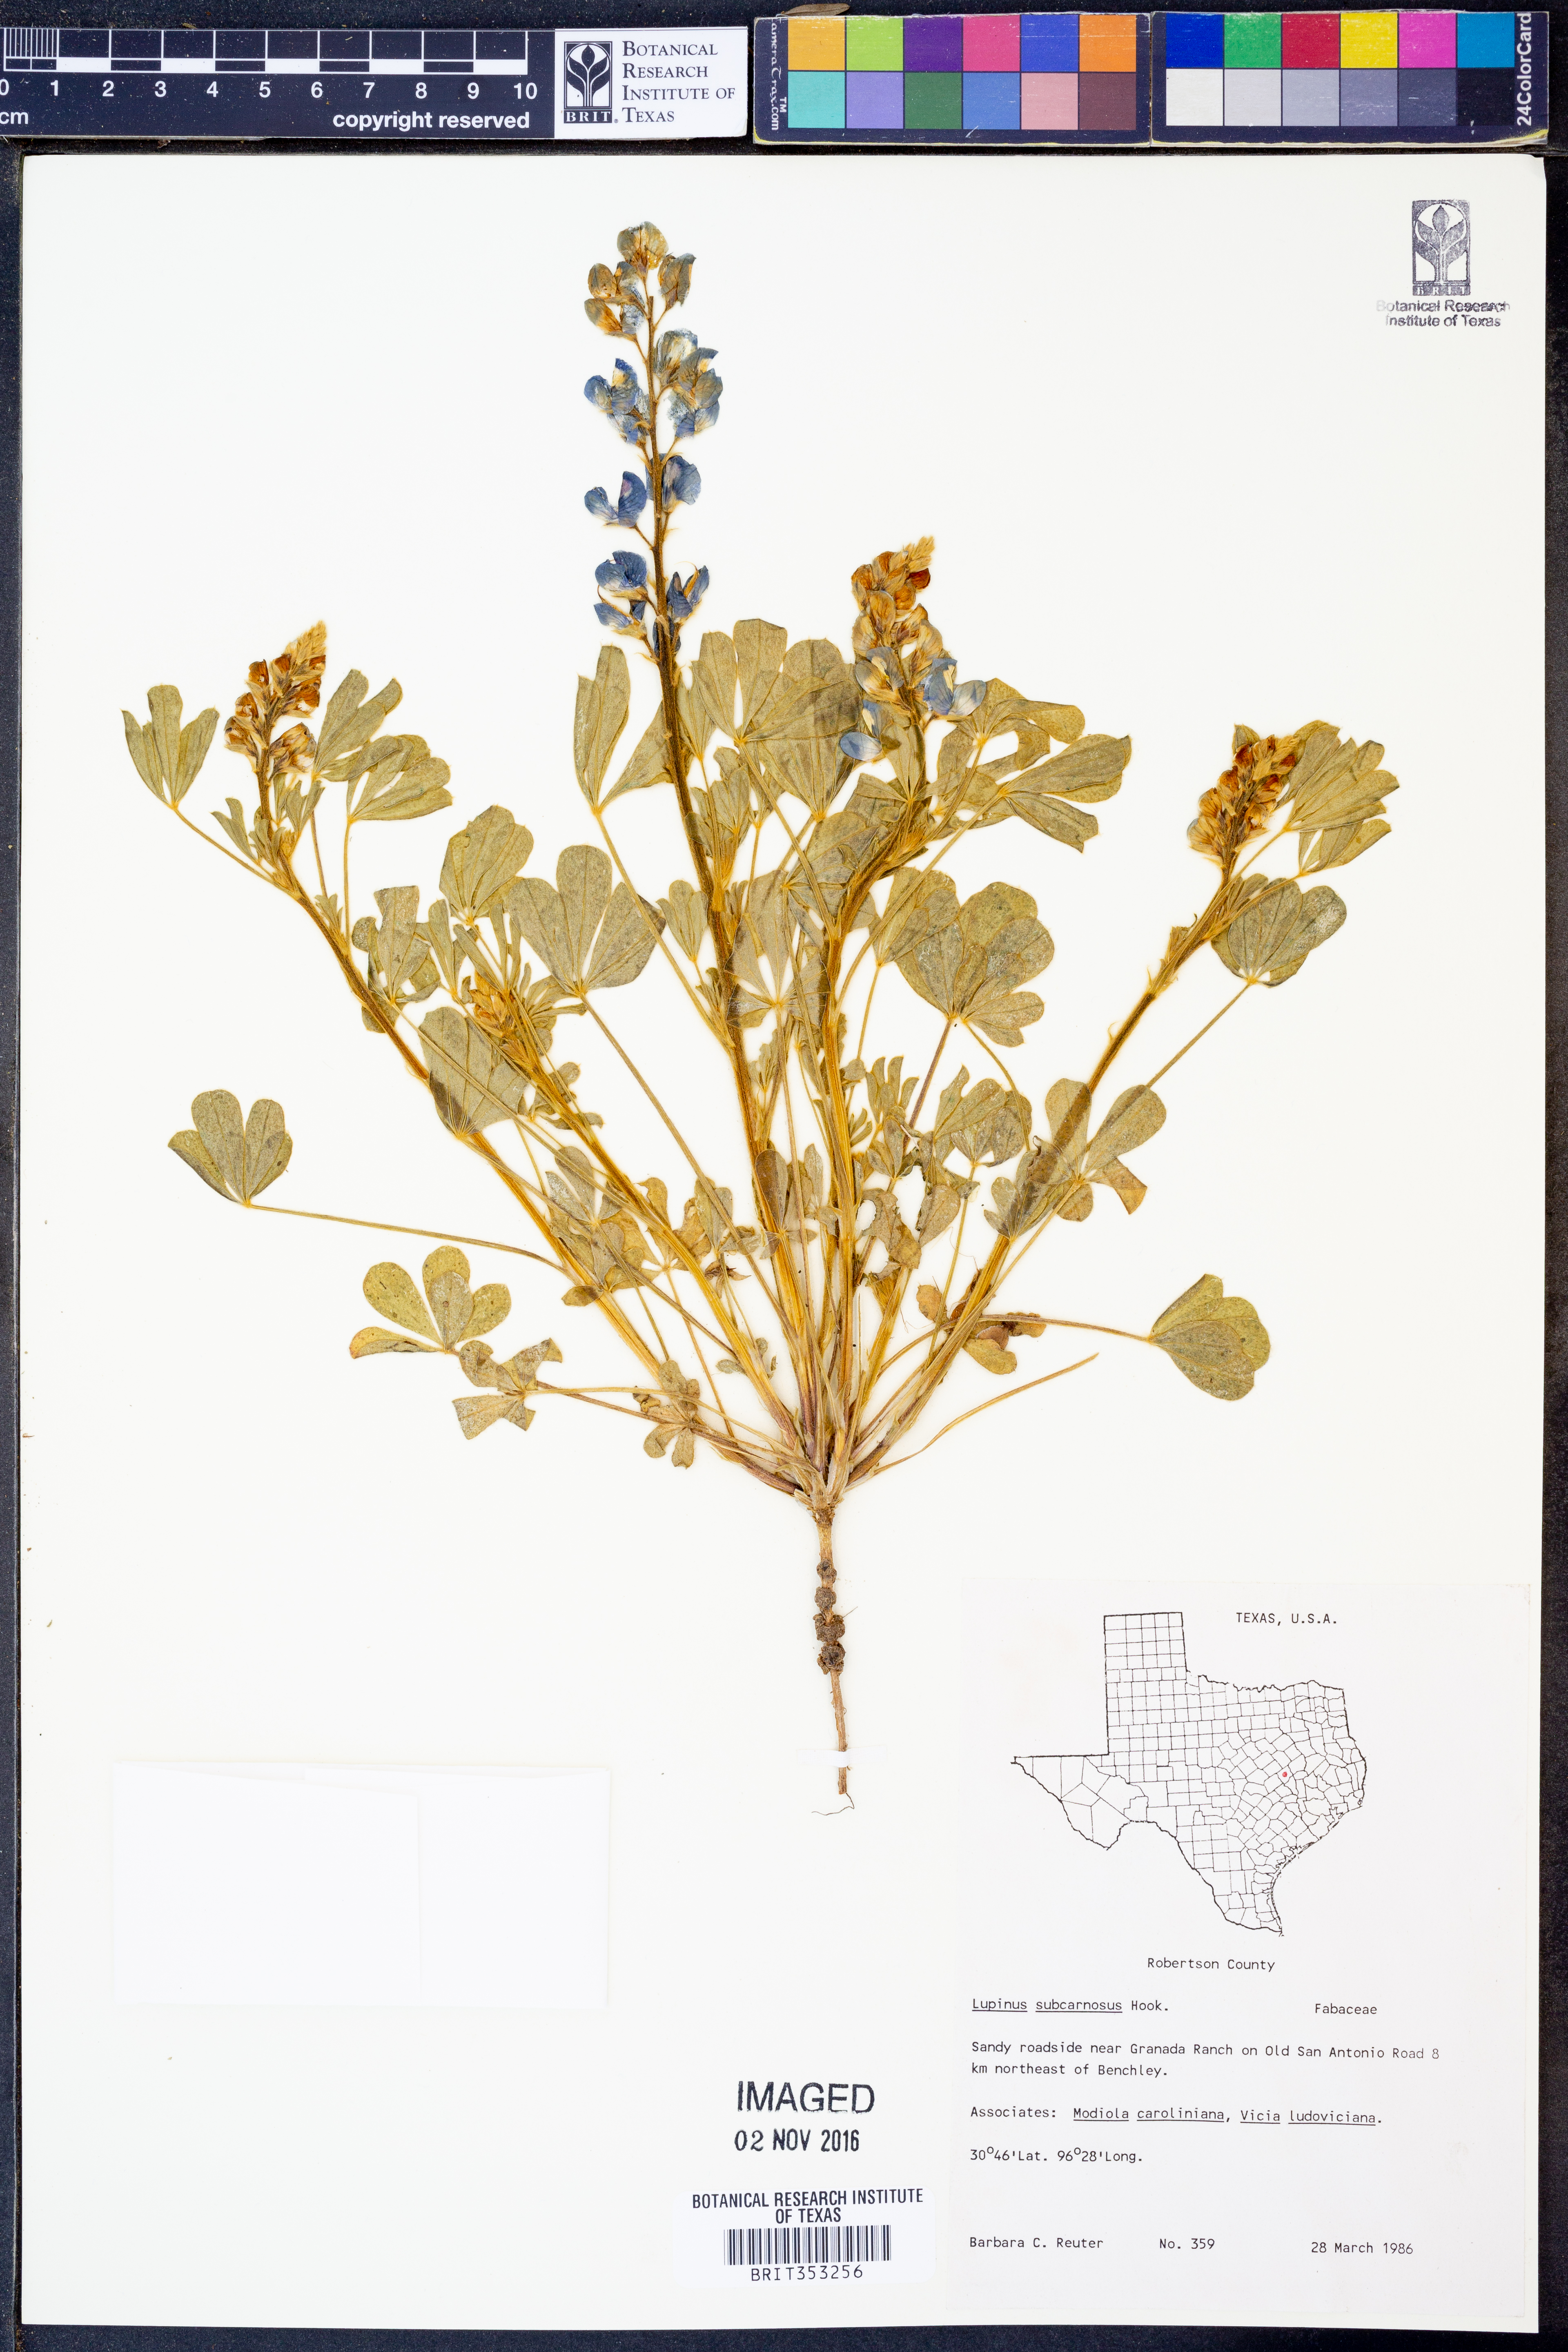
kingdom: Plantae
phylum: Tracheophyta
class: Magnoliopsida
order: Fabales
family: Fabaceae
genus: Lupinus
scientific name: Lupinus subcarnosus
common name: Texas bluebonnet
